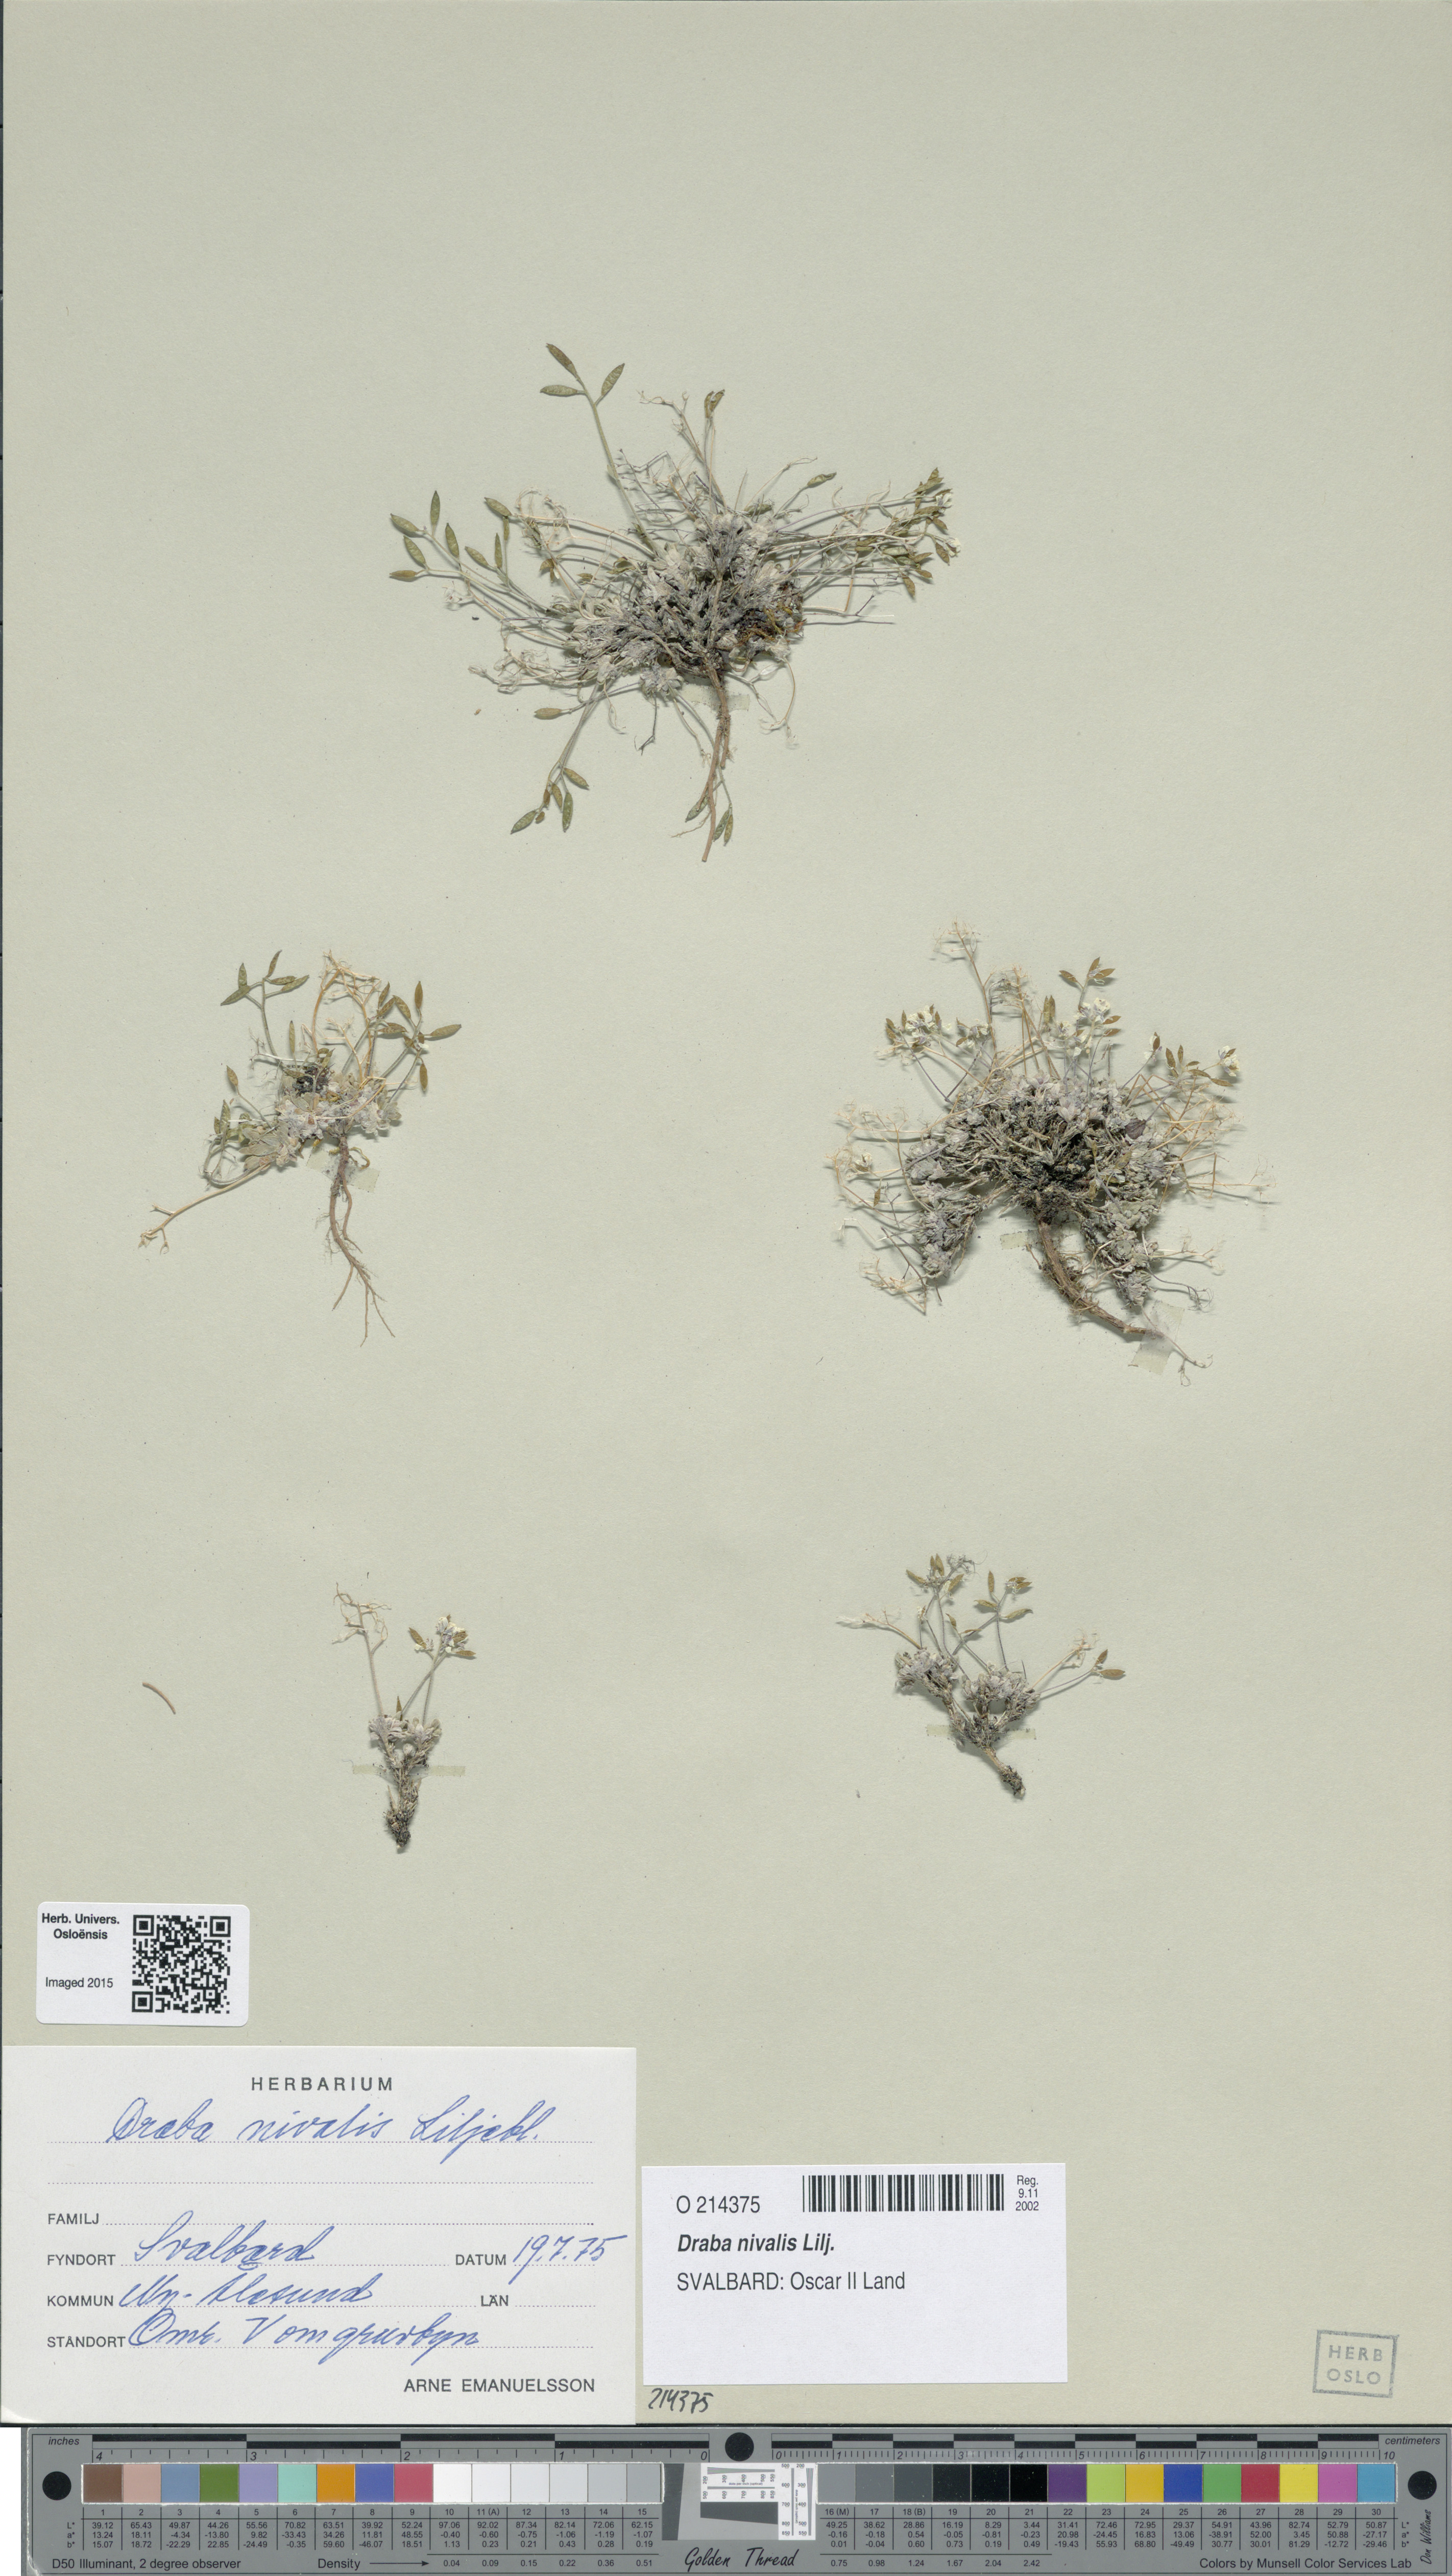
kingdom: Plantae
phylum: Tracheophyta
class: Magnoliopsida
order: Brassicales
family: Brassicaceae
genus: Draba
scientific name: Draba nivalis
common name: Snow draba
